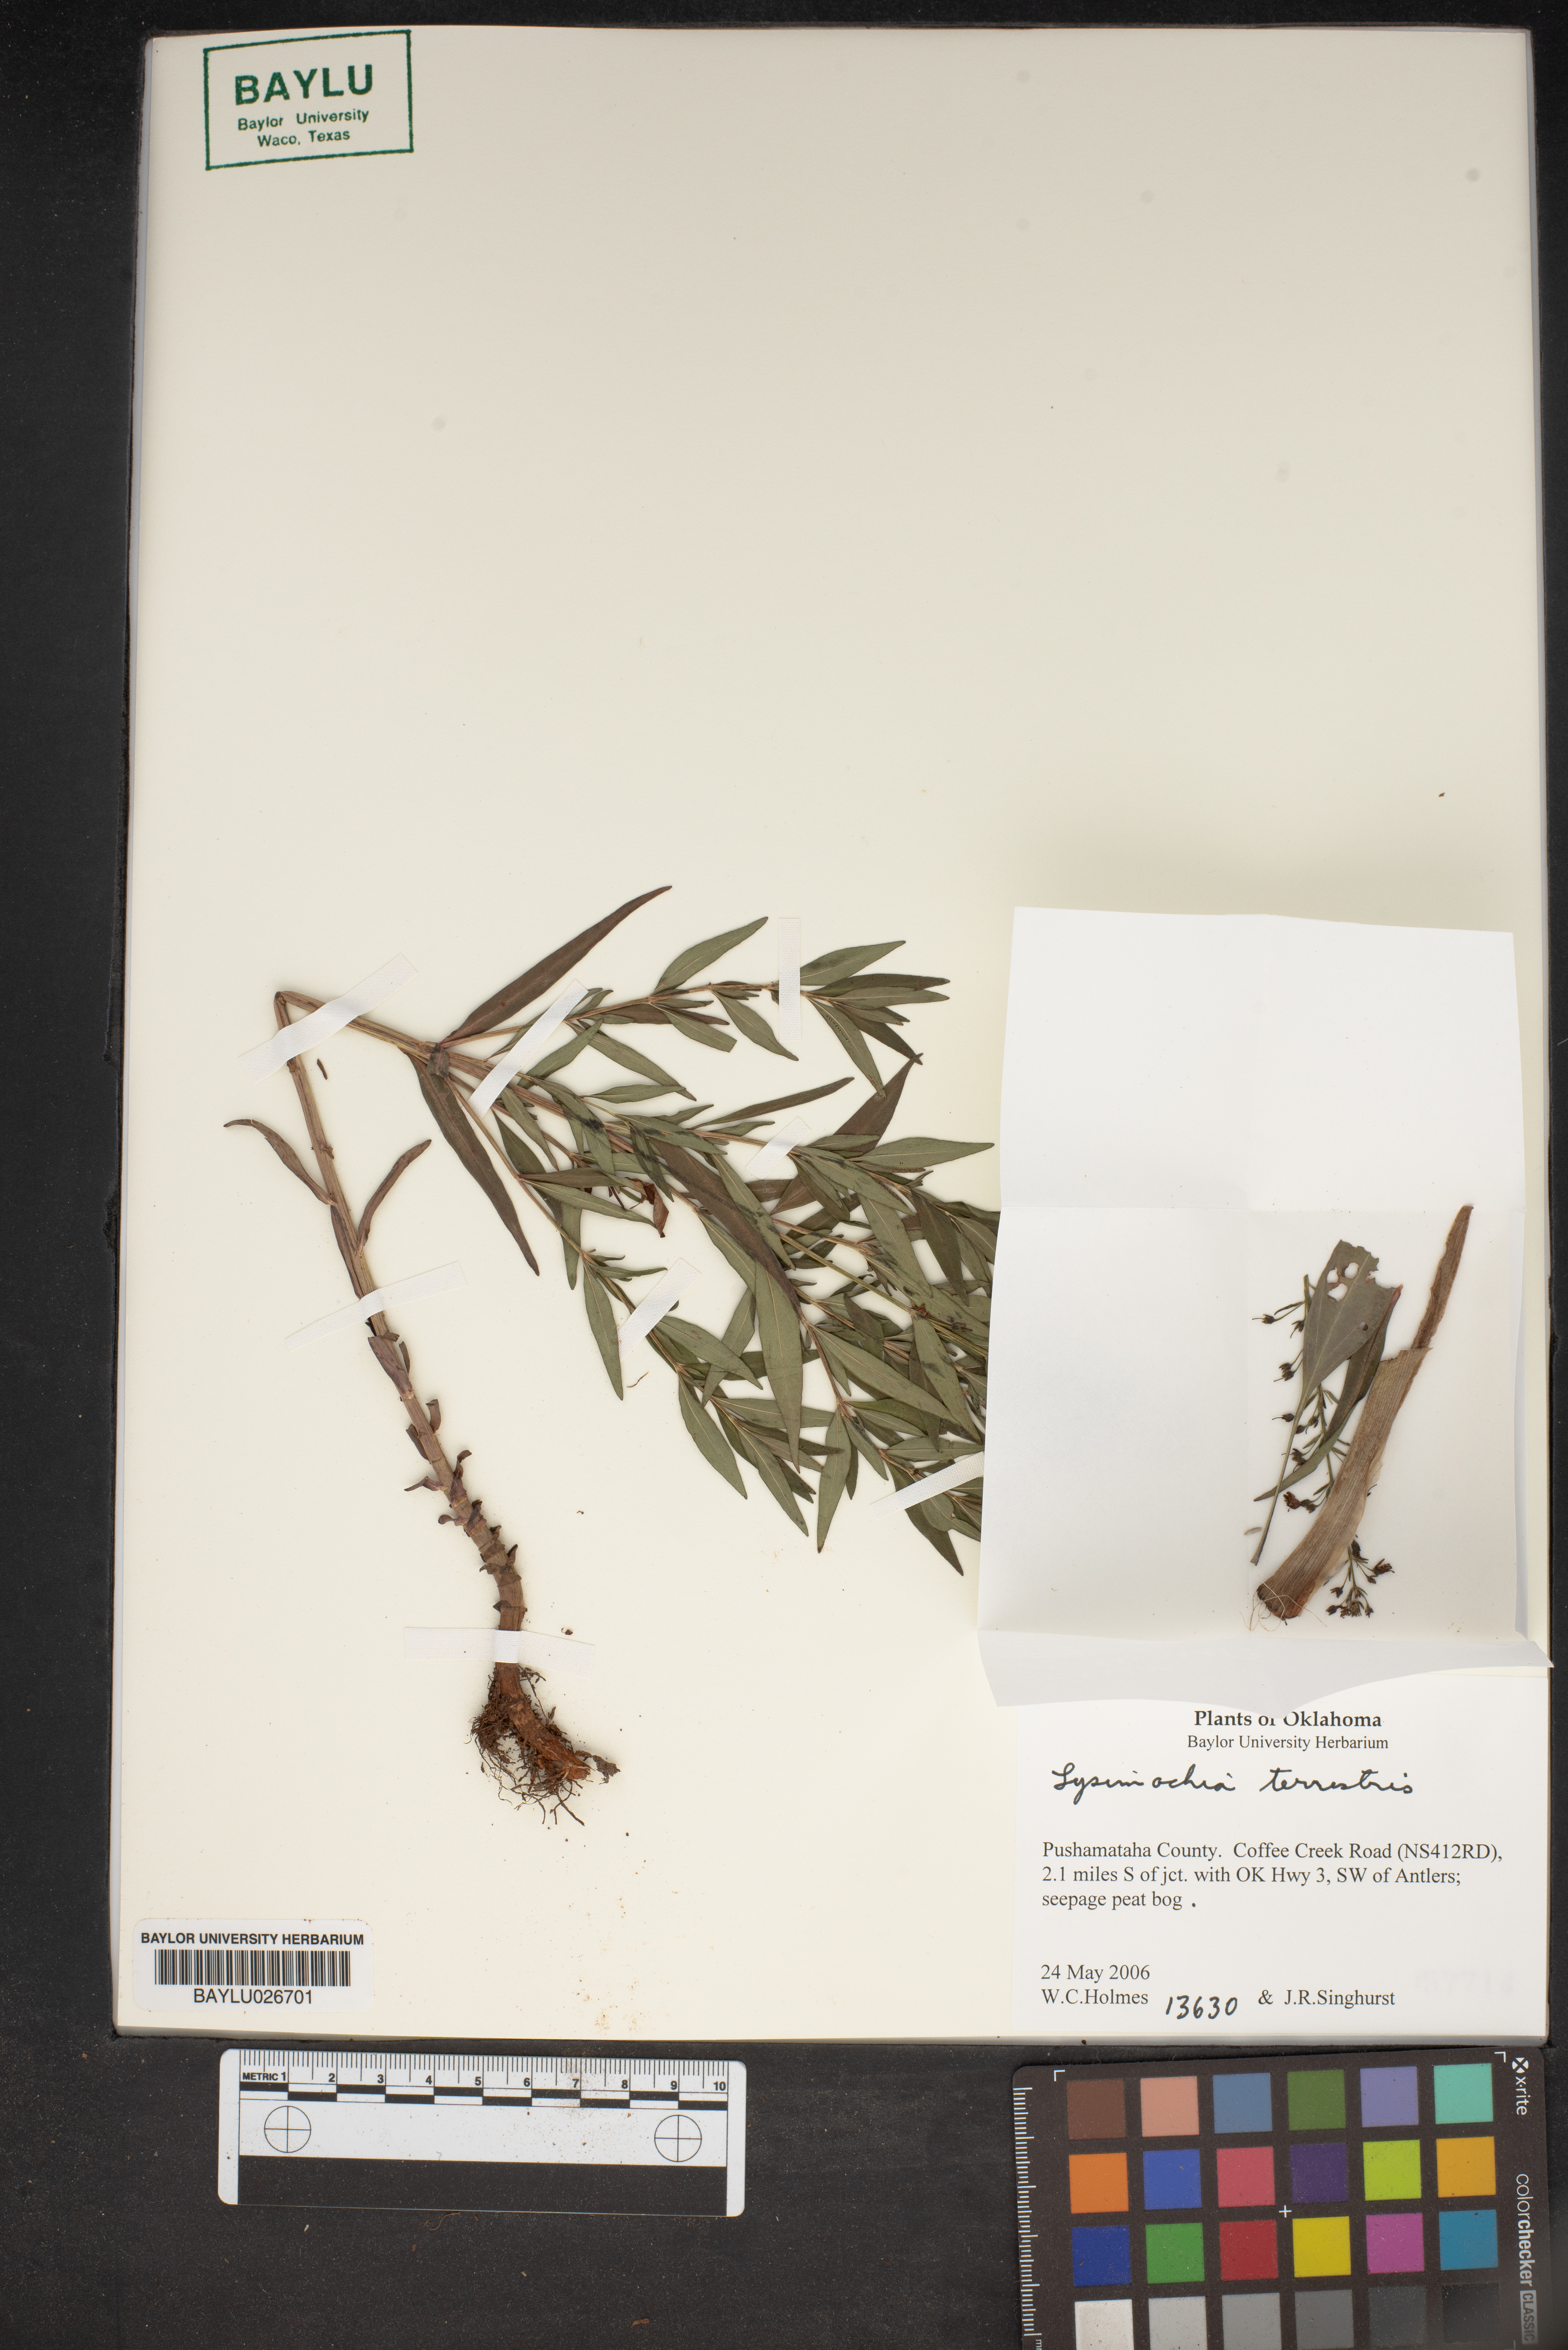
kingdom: Plantae
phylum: Tracheophyta
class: Magnoliopsida
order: Ericales
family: Primulaceae
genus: Lysimachia
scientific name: Lysimachia terrestris
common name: Lake loosestrife
